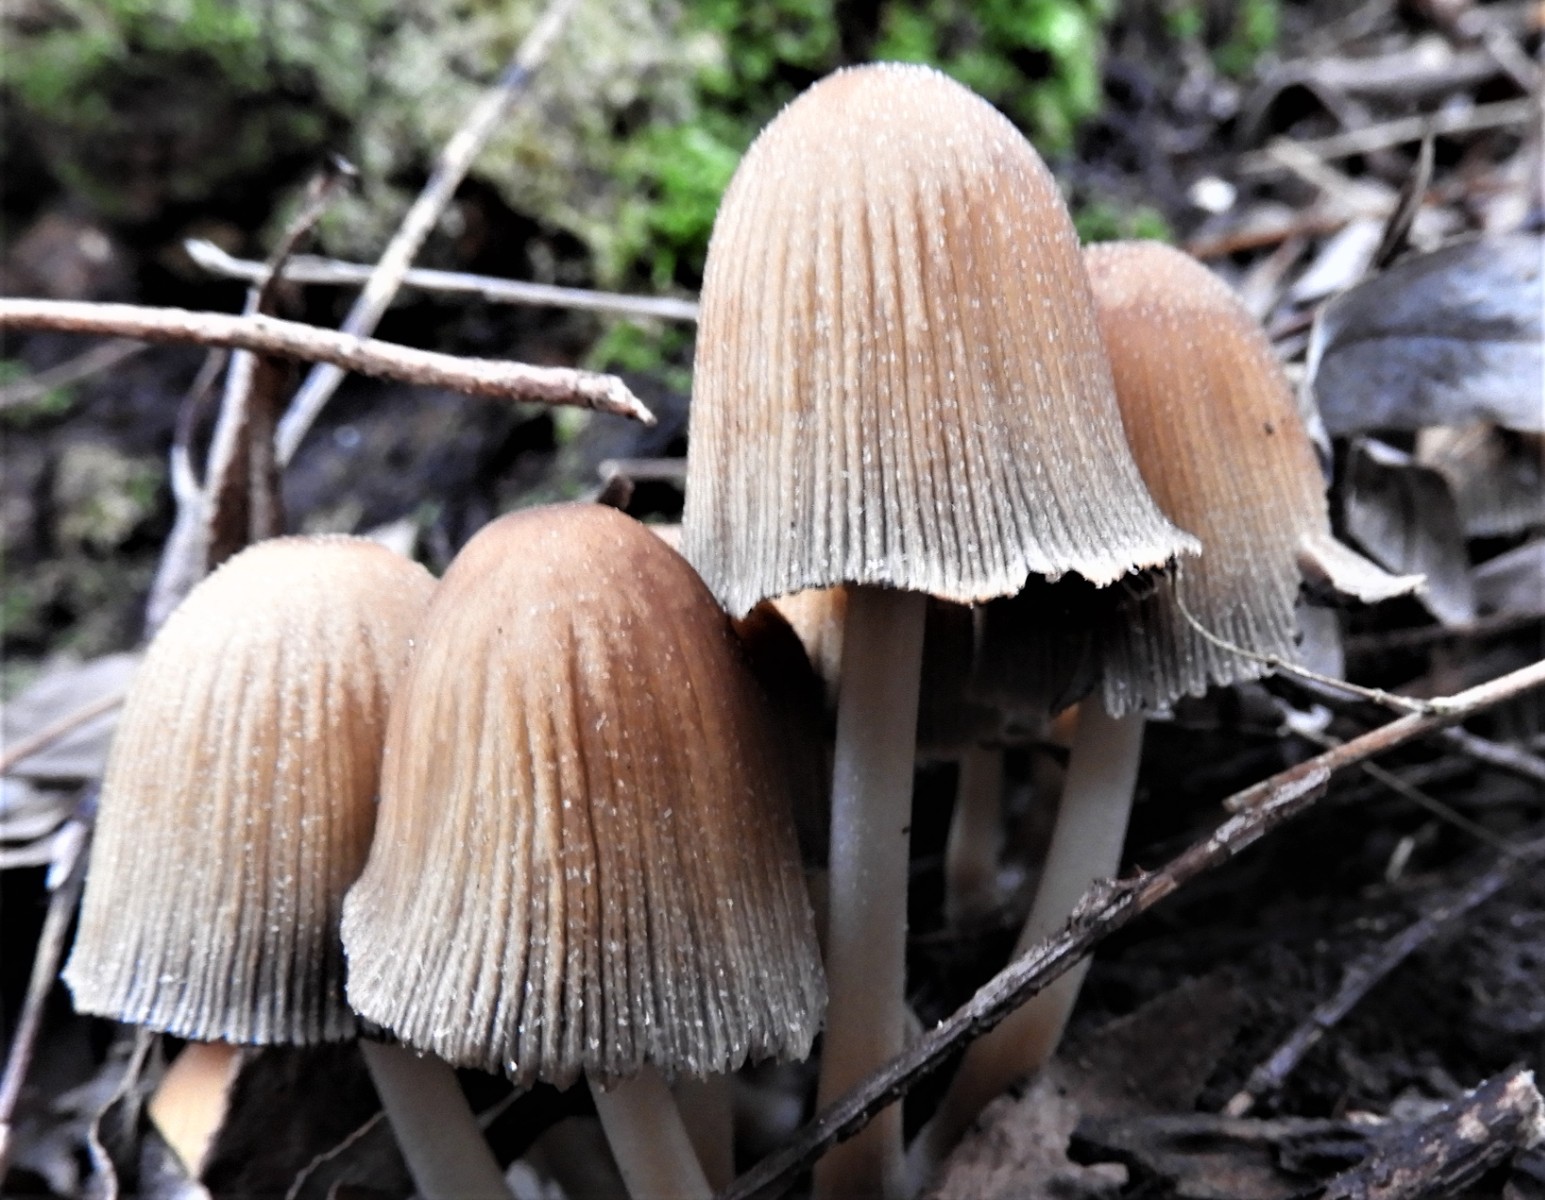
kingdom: Fungi
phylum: Basidiomycota
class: Agaricomycetes
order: Agaricales
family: Psathyrellaceae
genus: Coprinellus
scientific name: Coprinellus micaceus
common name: glimmer-blækhat
